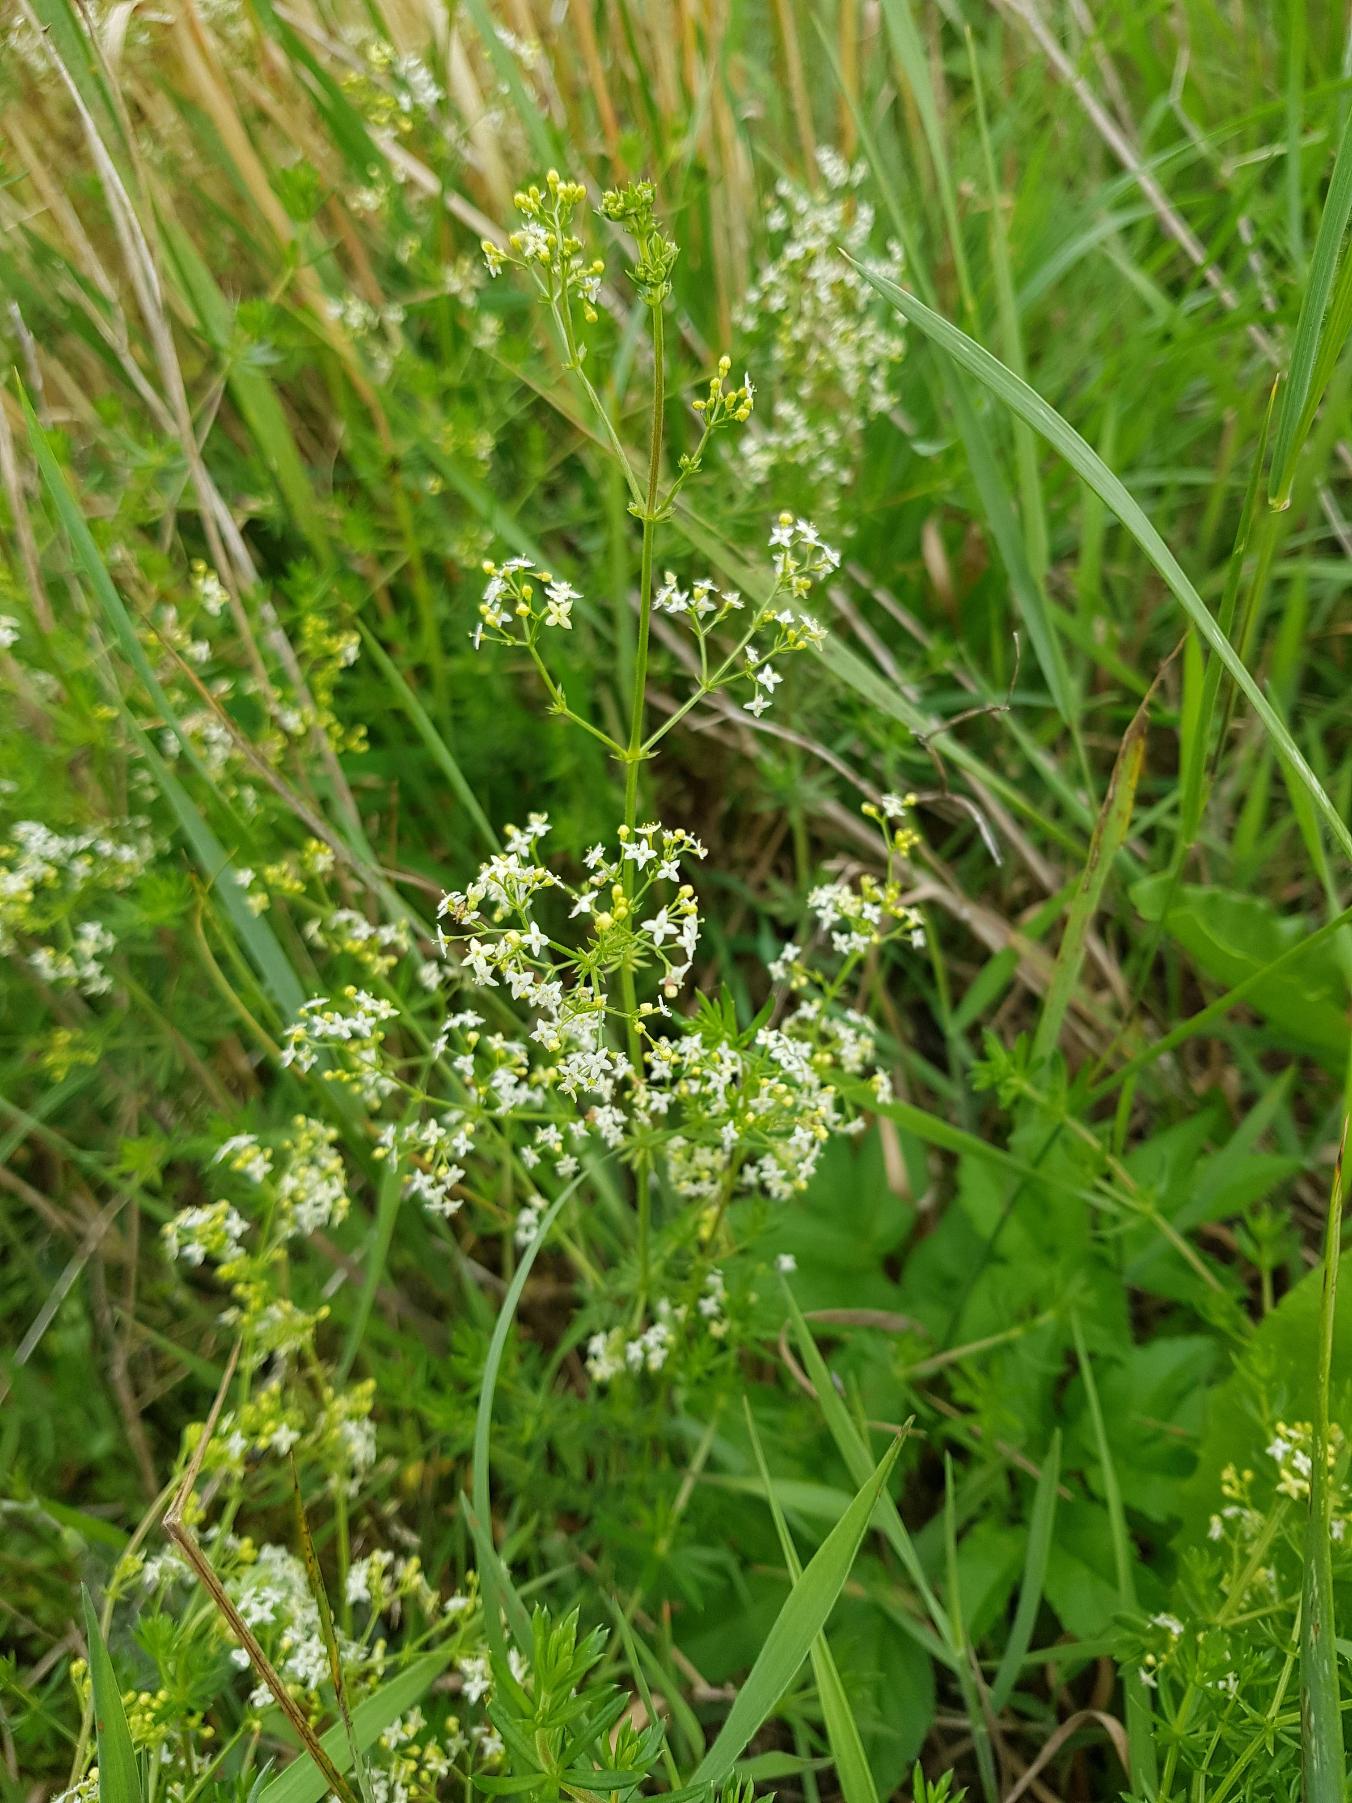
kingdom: Plantae
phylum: Tracheophyta
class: Magnoliopsida
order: Gentianales
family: Rubiaceae
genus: Galium
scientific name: Galium mollugo
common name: Hvid snerre
